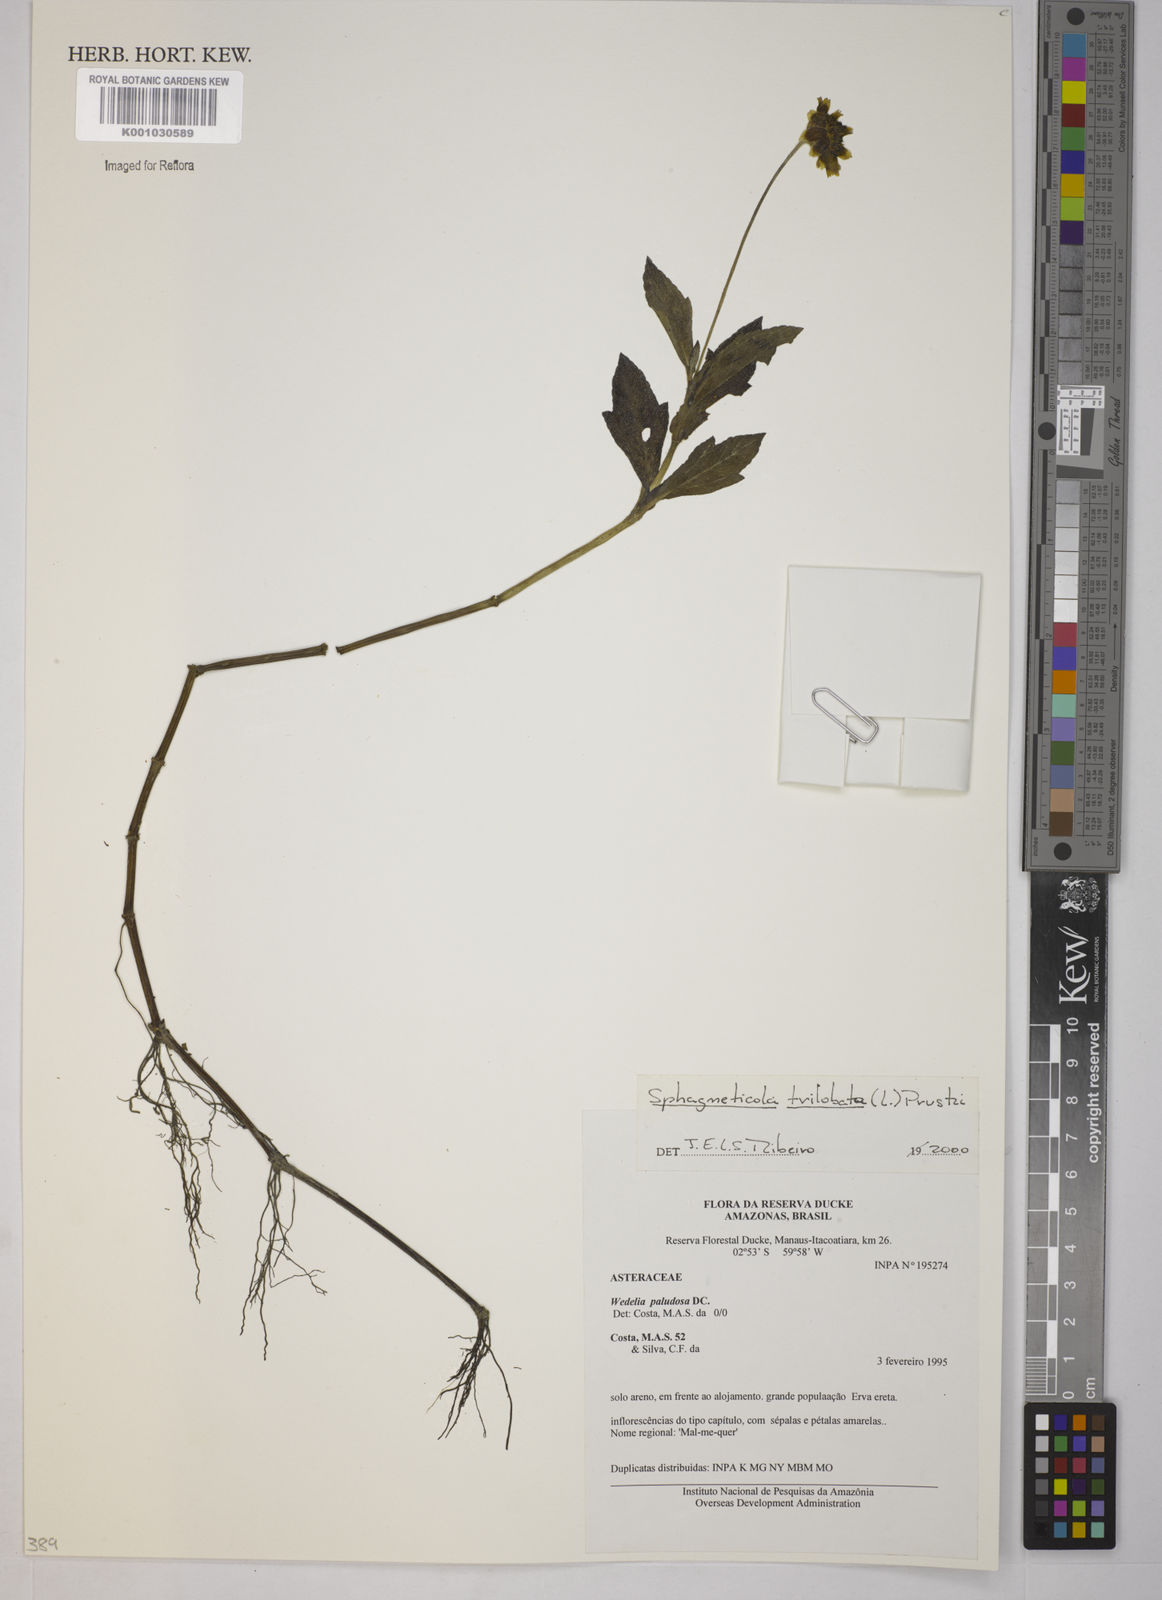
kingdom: Plantae
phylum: Tracheophyta
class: Magnoliopsida
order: Asterales
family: Asteraceae
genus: Sphagneticola
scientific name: Sphagneticola trilobata
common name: Bay biscayne creeping-oxeye
